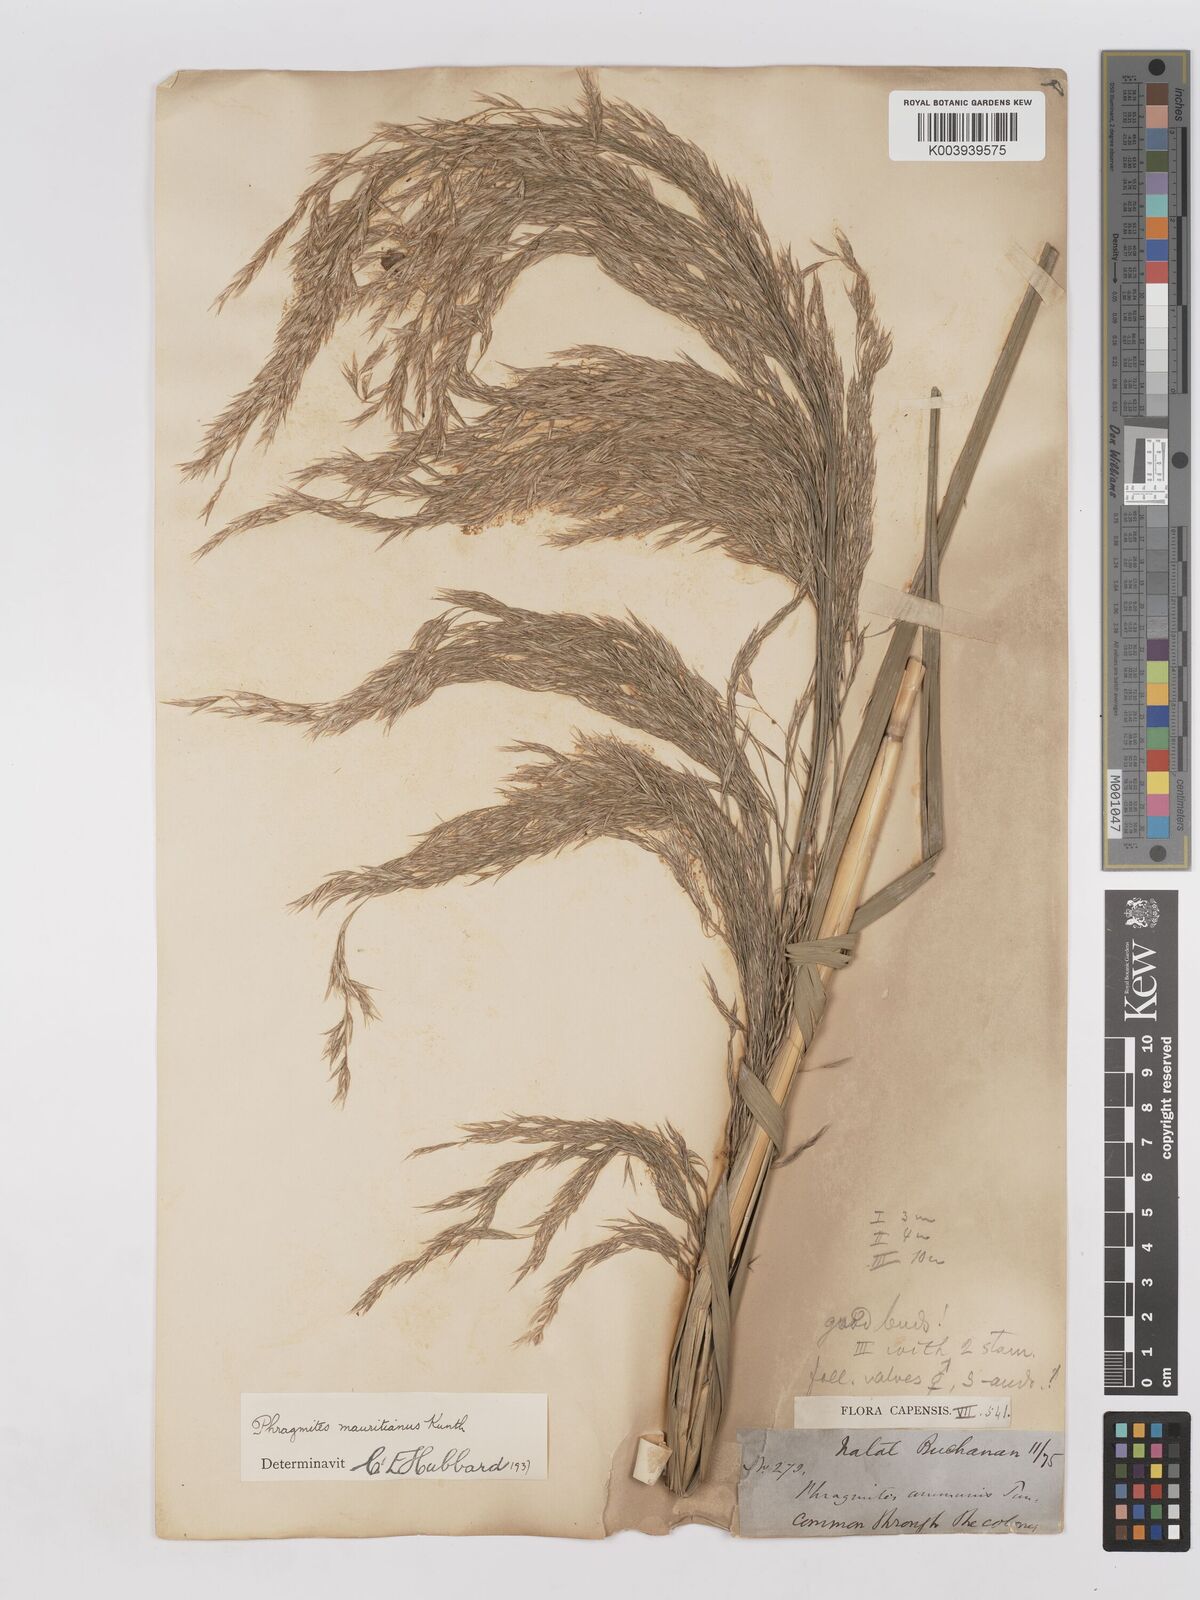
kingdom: Plantae
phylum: Tracheophyta
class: Liliopsida
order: Poales
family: Poaceae
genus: Phragmites
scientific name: Phragmites mauritianus
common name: Reed grass
